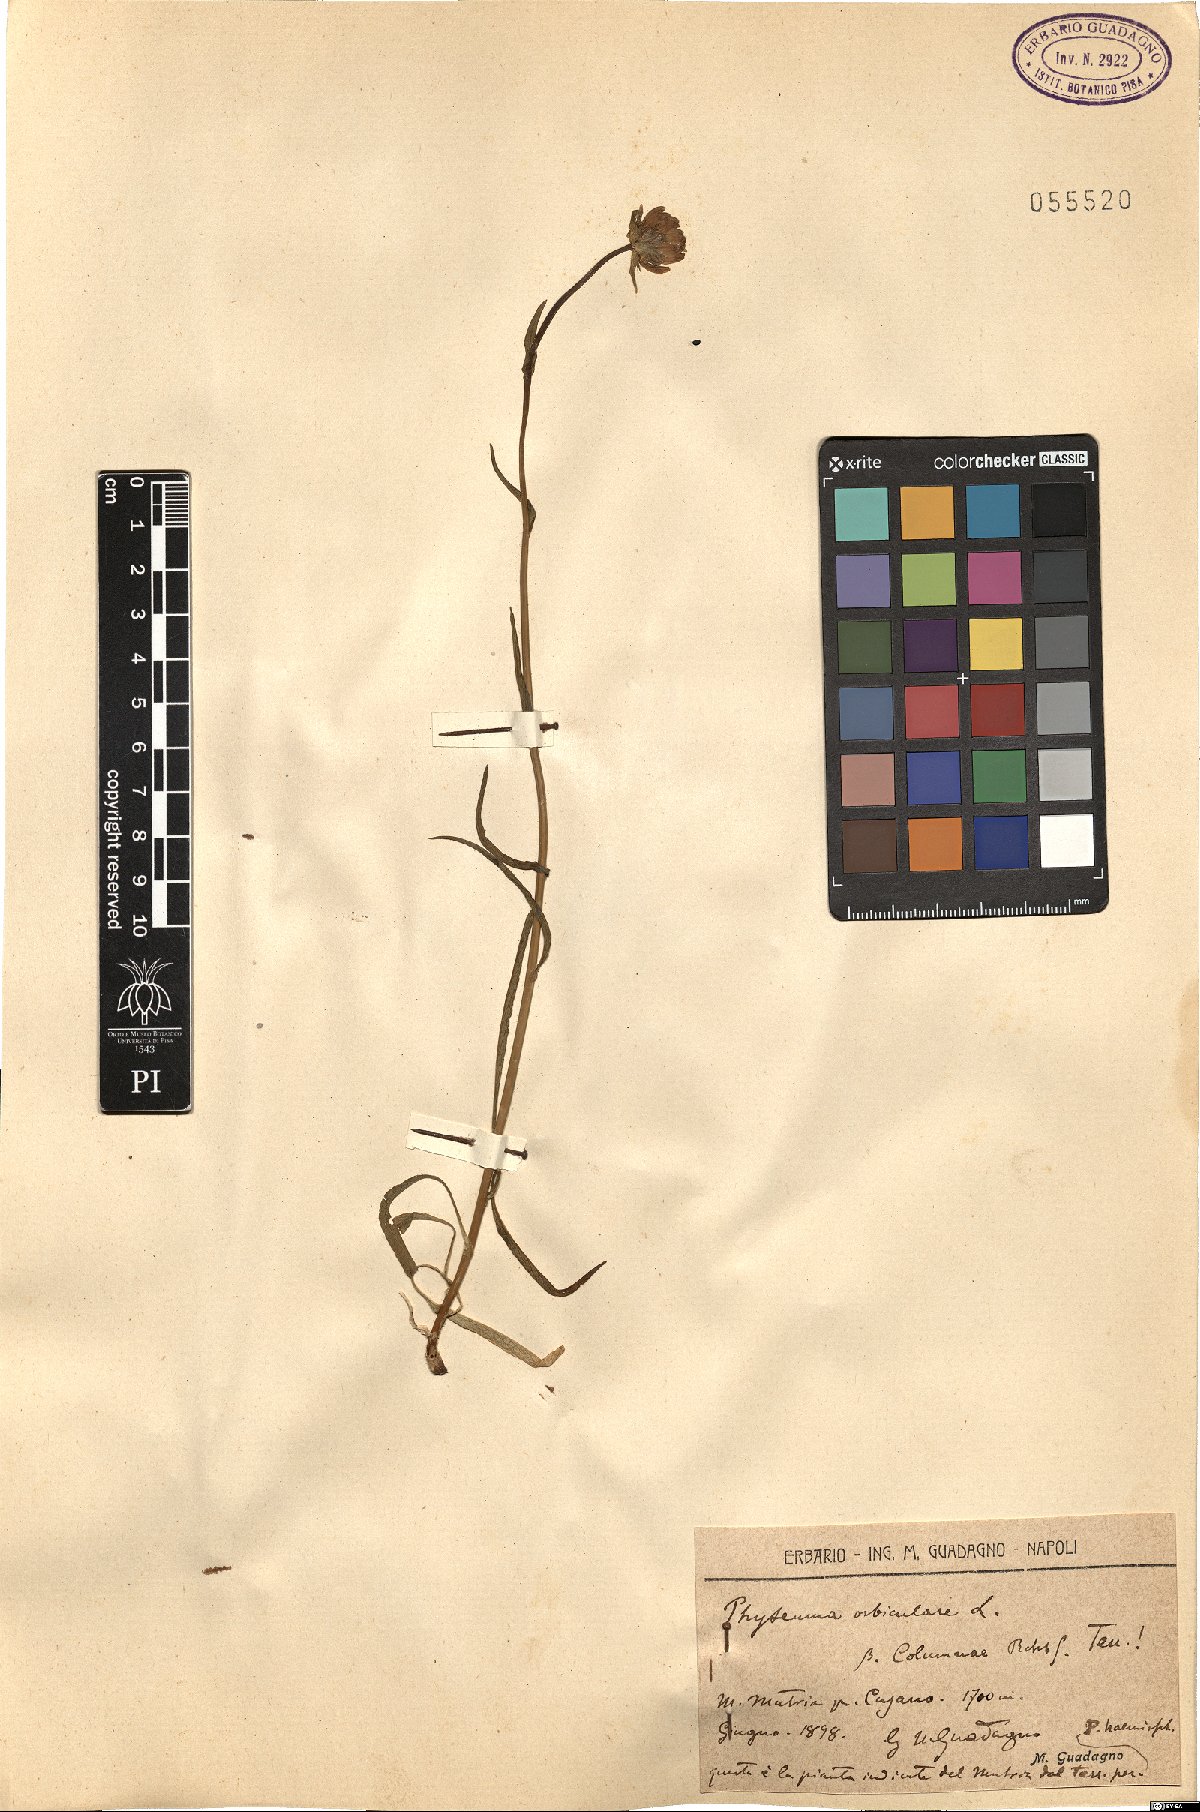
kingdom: Plantae
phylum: Tracheophyta
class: Magnoliopsida
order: Asterales
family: Campanulaceae
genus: Phyteuma
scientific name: Phyteuma orbiculare
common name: Round-headed rampion
